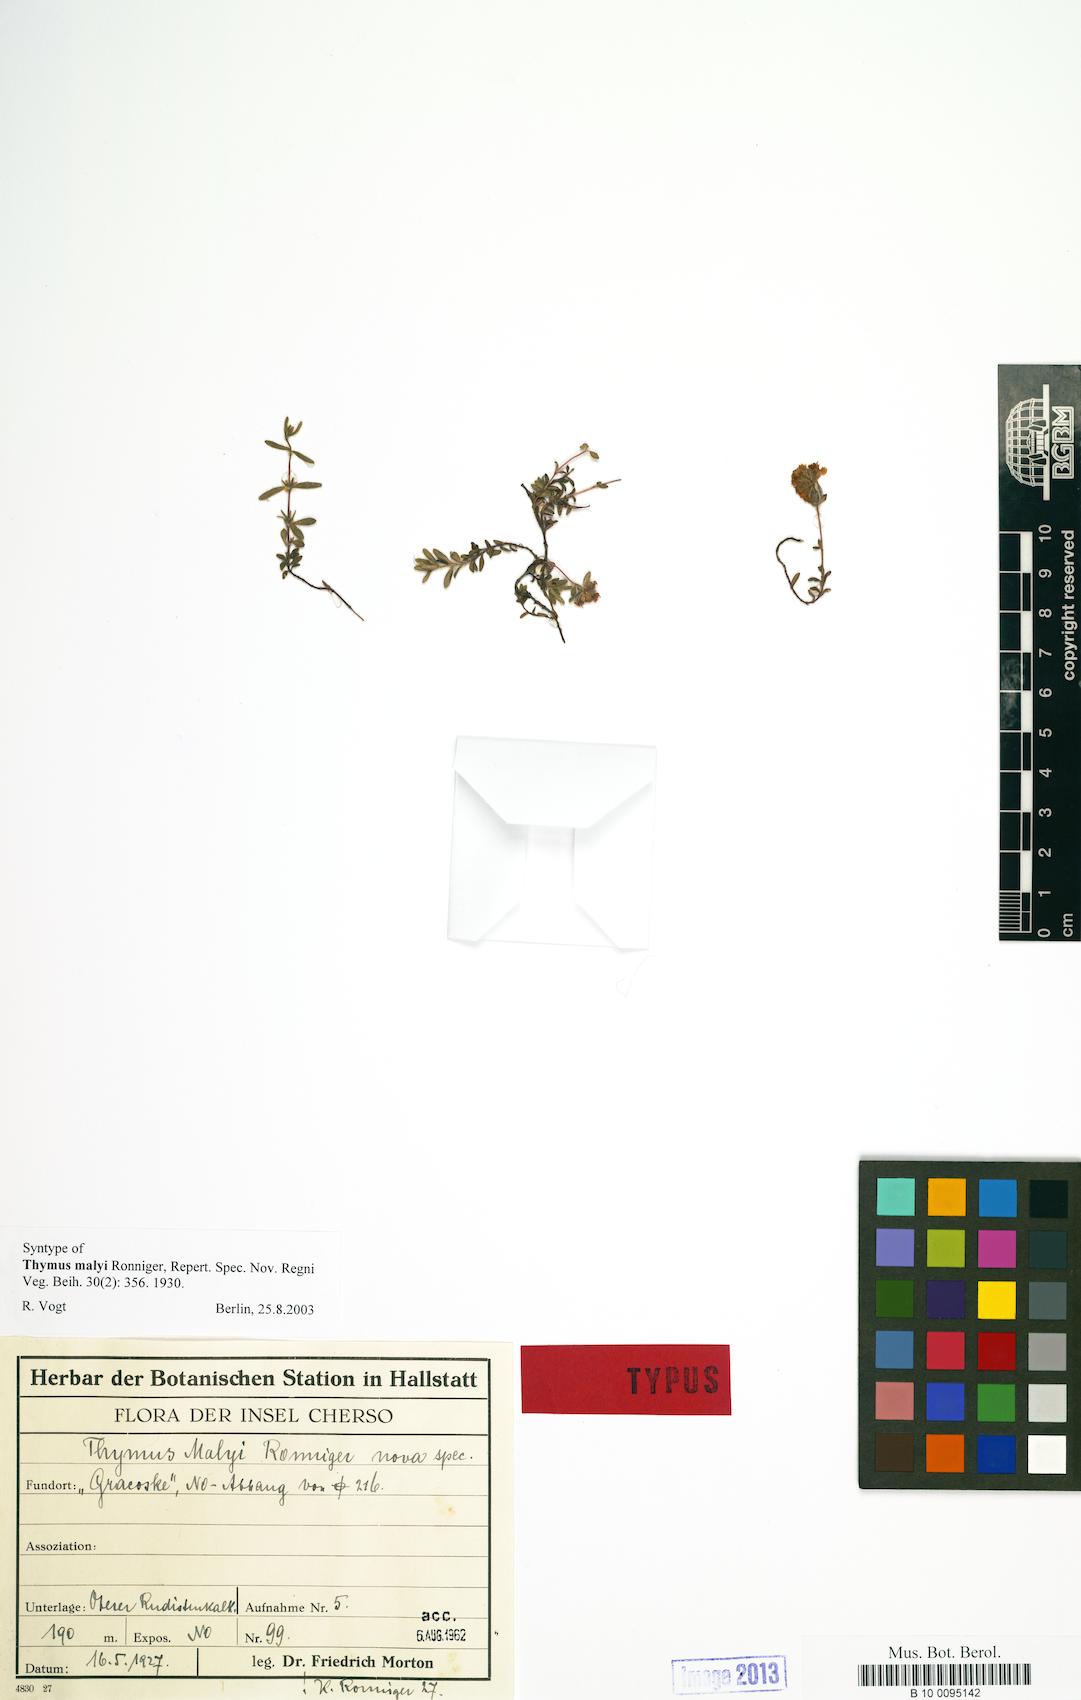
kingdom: Plantae
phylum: Tracheophyta
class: Magnoliopsida
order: Lamiales
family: Lamiaceae
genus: Thymus
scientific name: Thymus longicaulis
